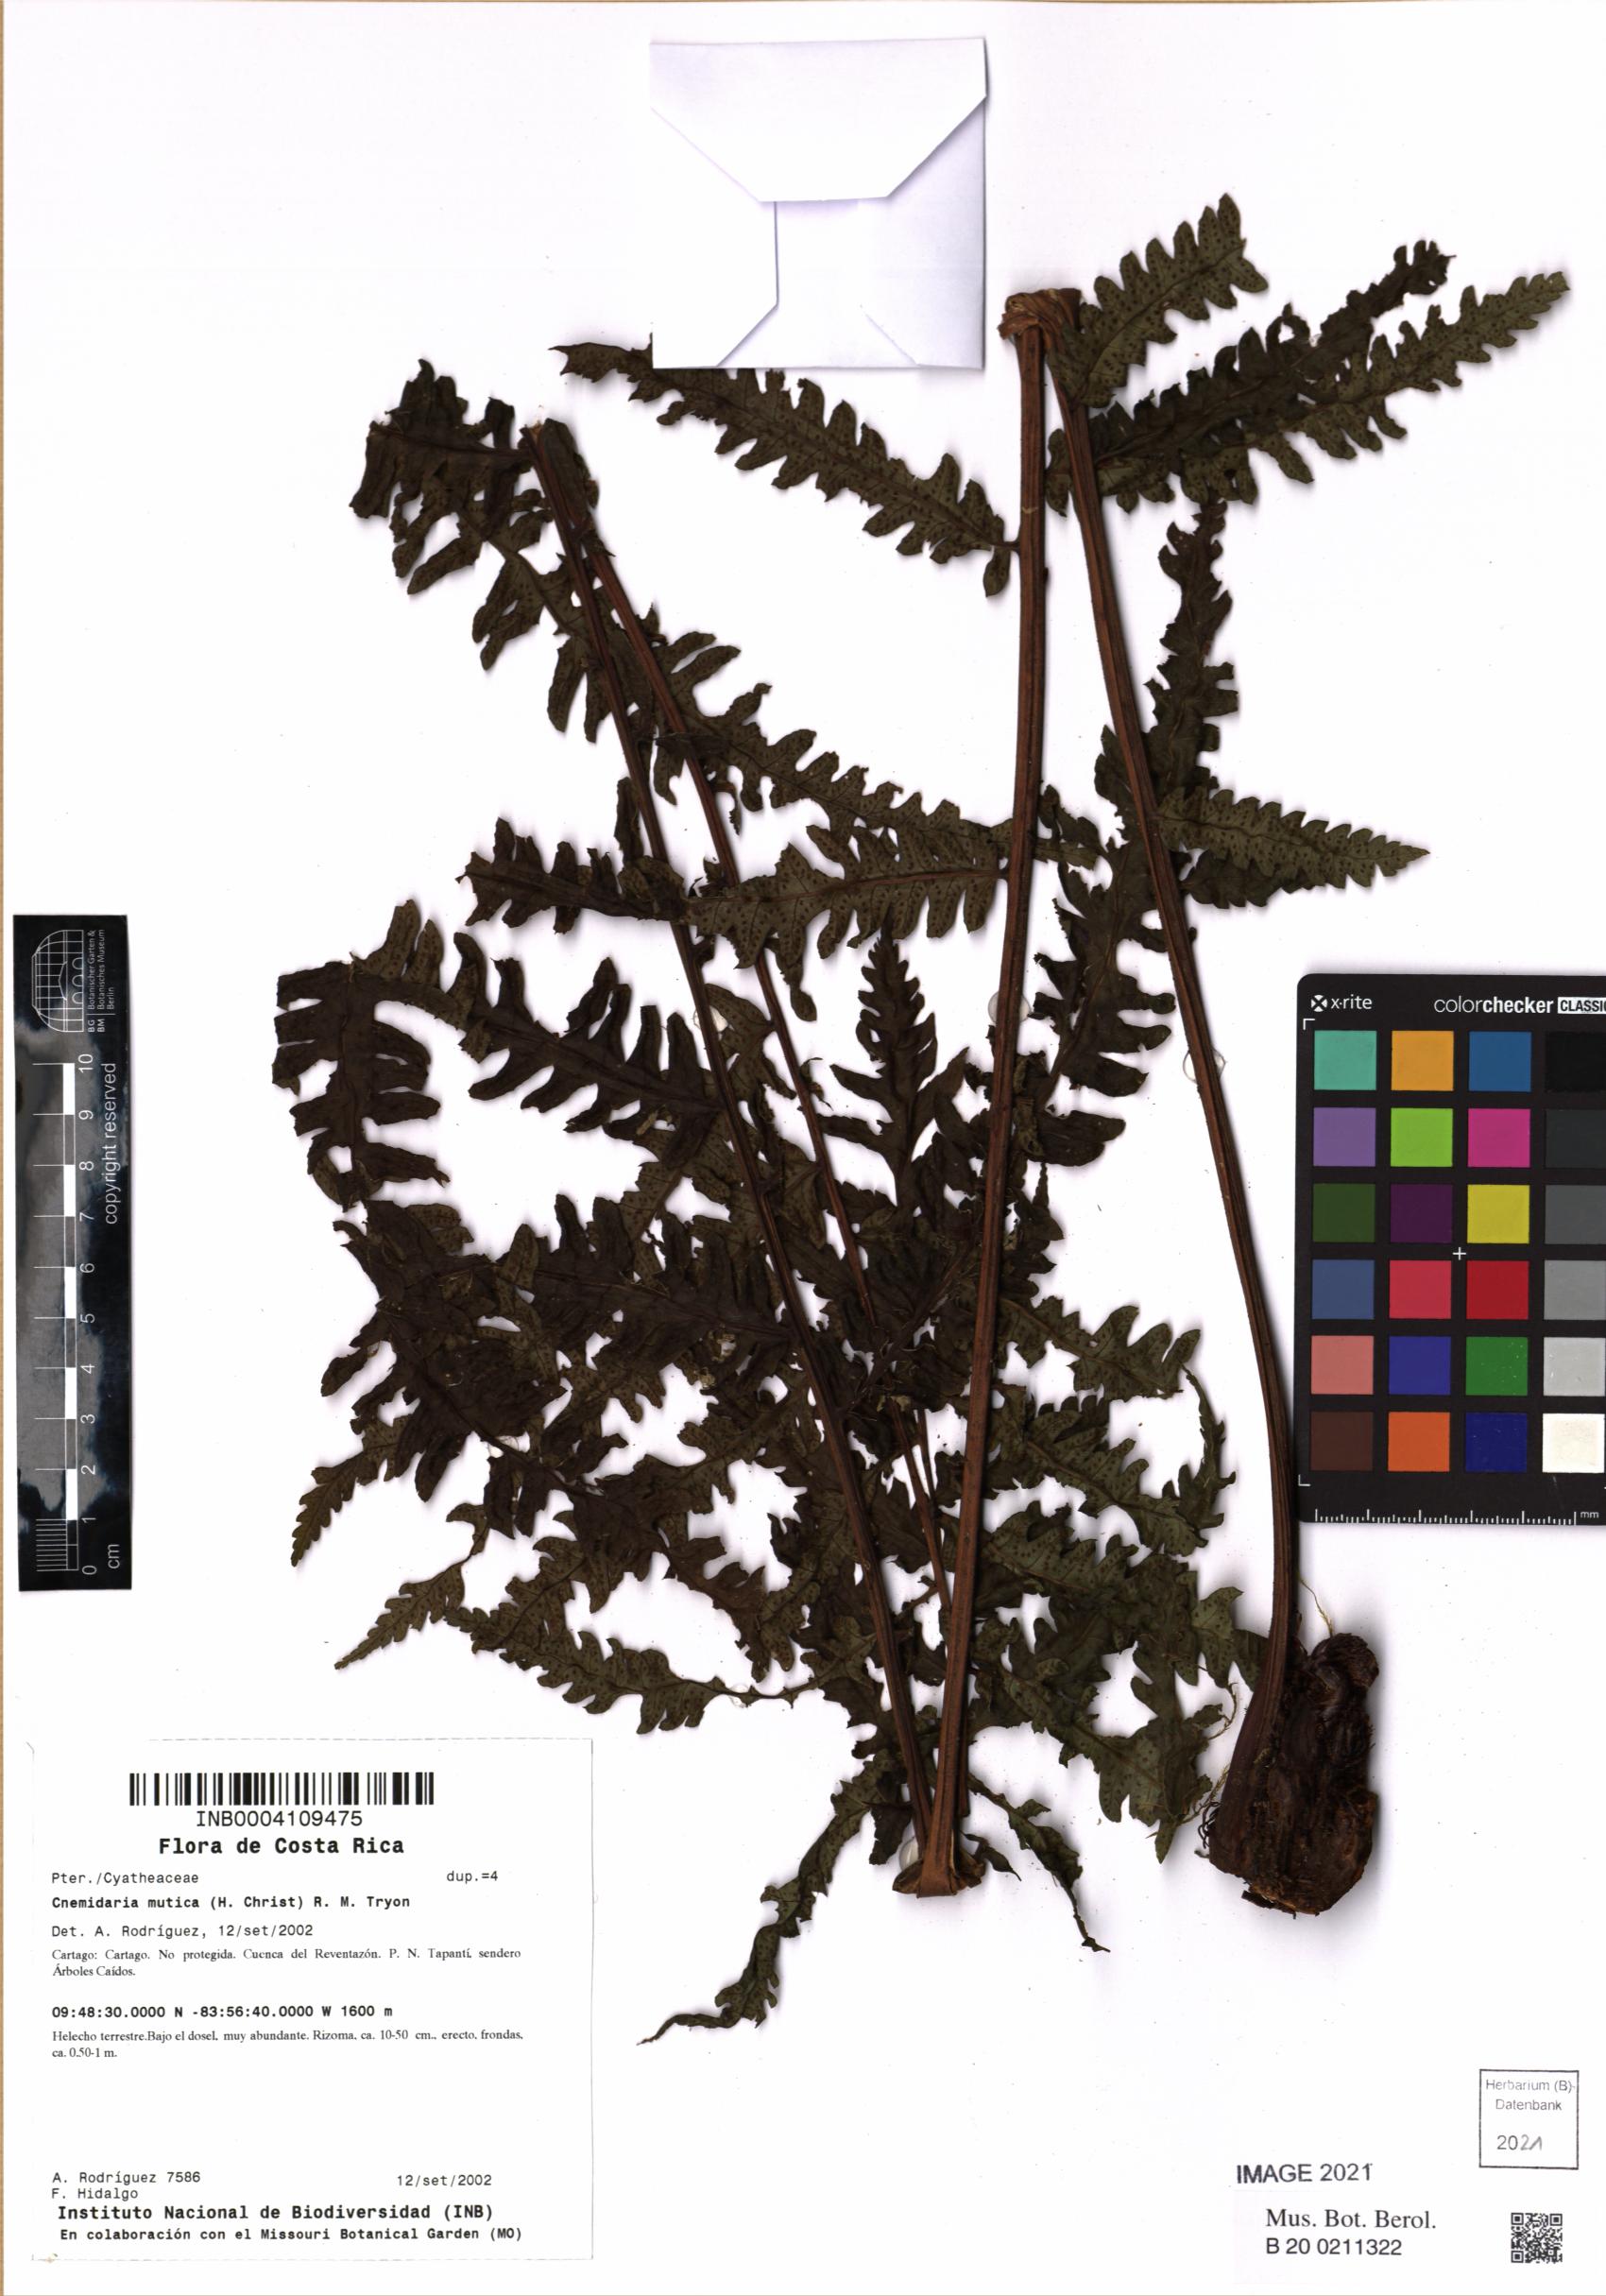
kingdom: Plantae
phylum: Tracheophyta
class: Polypodiopsida
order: Cyatheales
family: Cyatheaceae
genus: Cyathea
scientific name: Cyathea mutica
